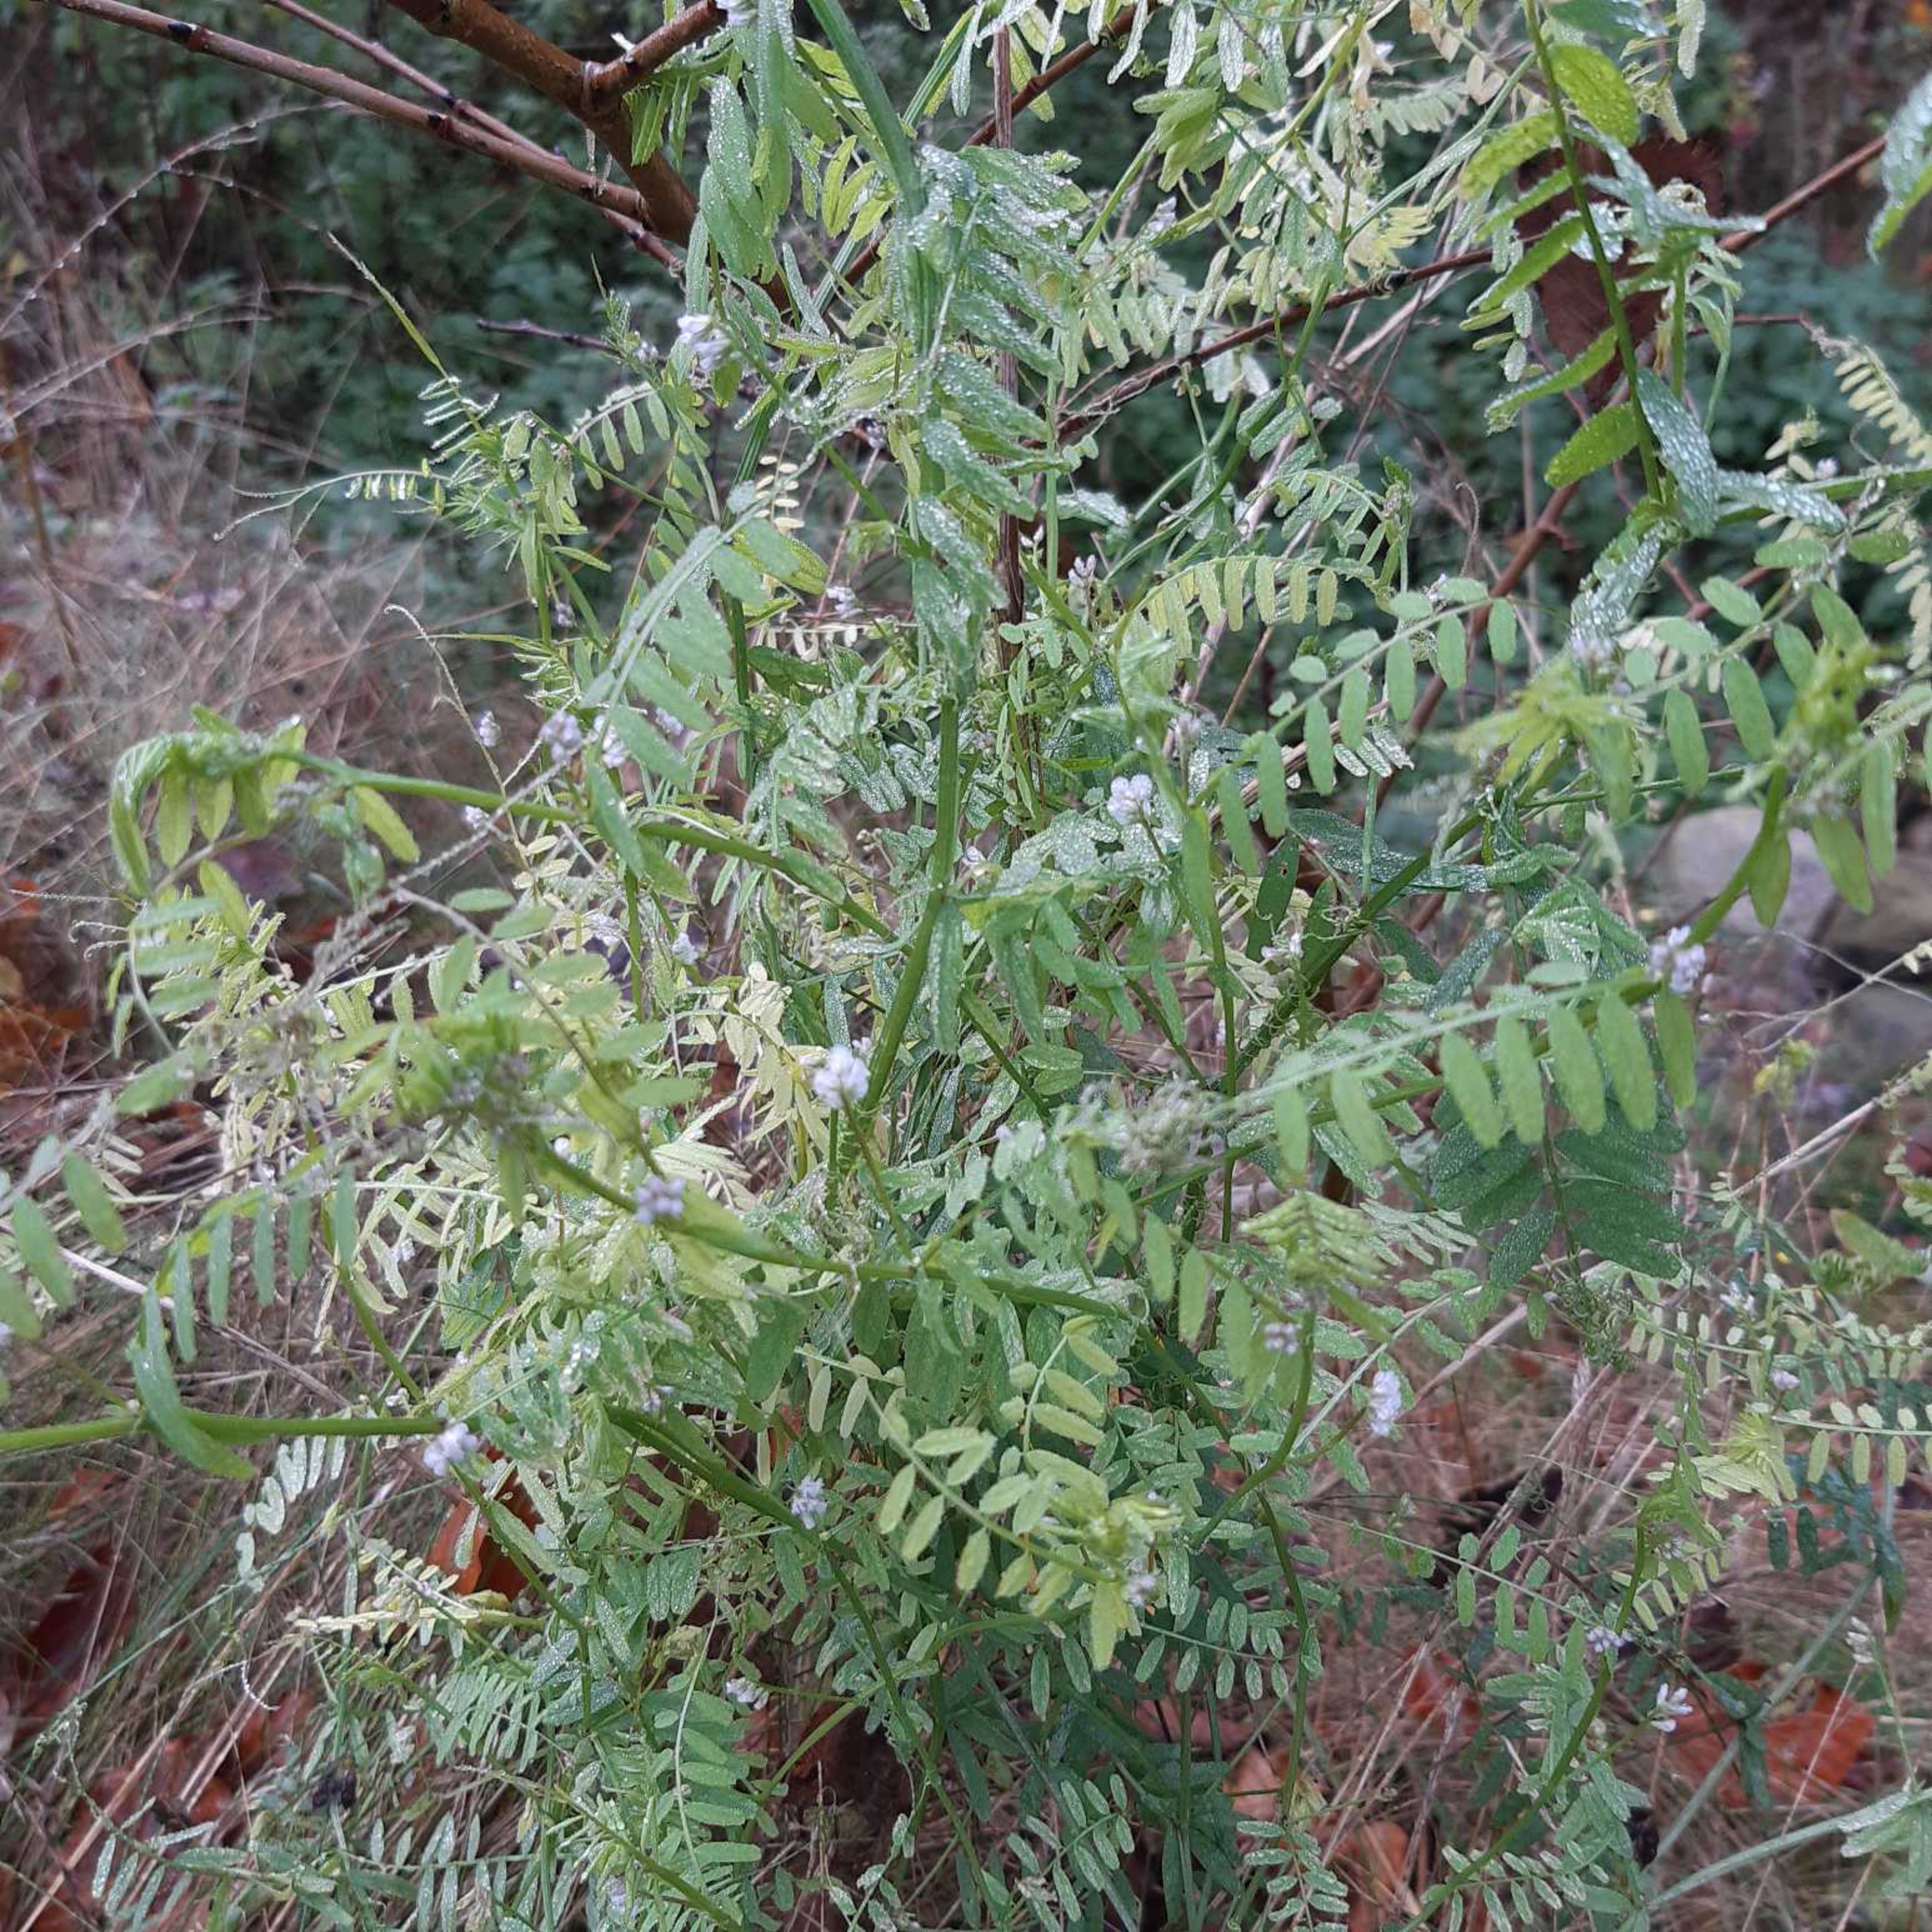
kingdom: Plantae
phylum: Tracheophyta
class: Magnoliopsida
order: Fabales
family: Fabaceae
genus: Vicia
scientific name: Vicia hirsuta
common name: Tofrøet vikke
